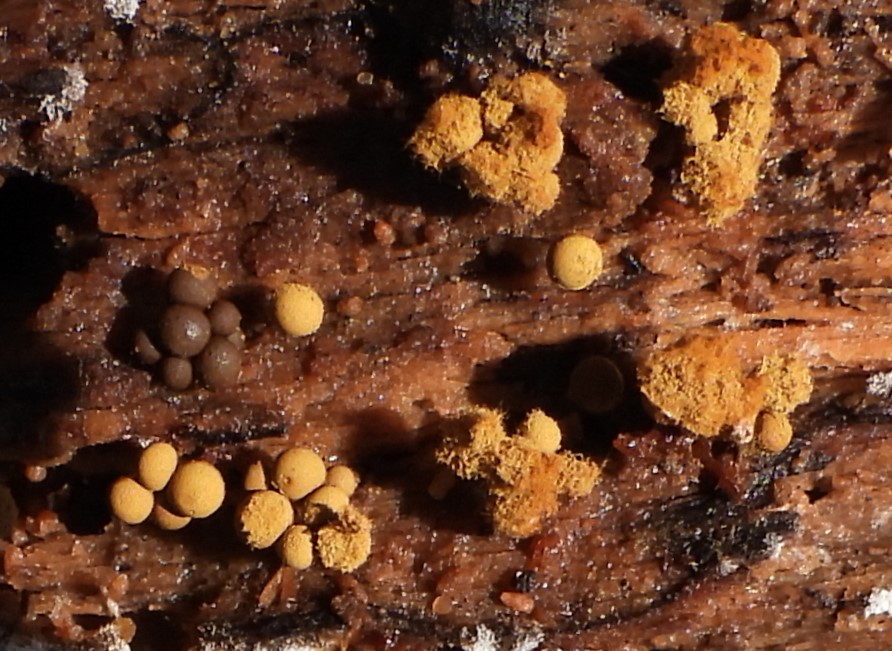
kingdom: Protozoa
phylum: Mycetozoa
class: Myxomycetes
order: Trichiales
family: Trichiaceae
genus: Trichia
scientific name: Trichia
